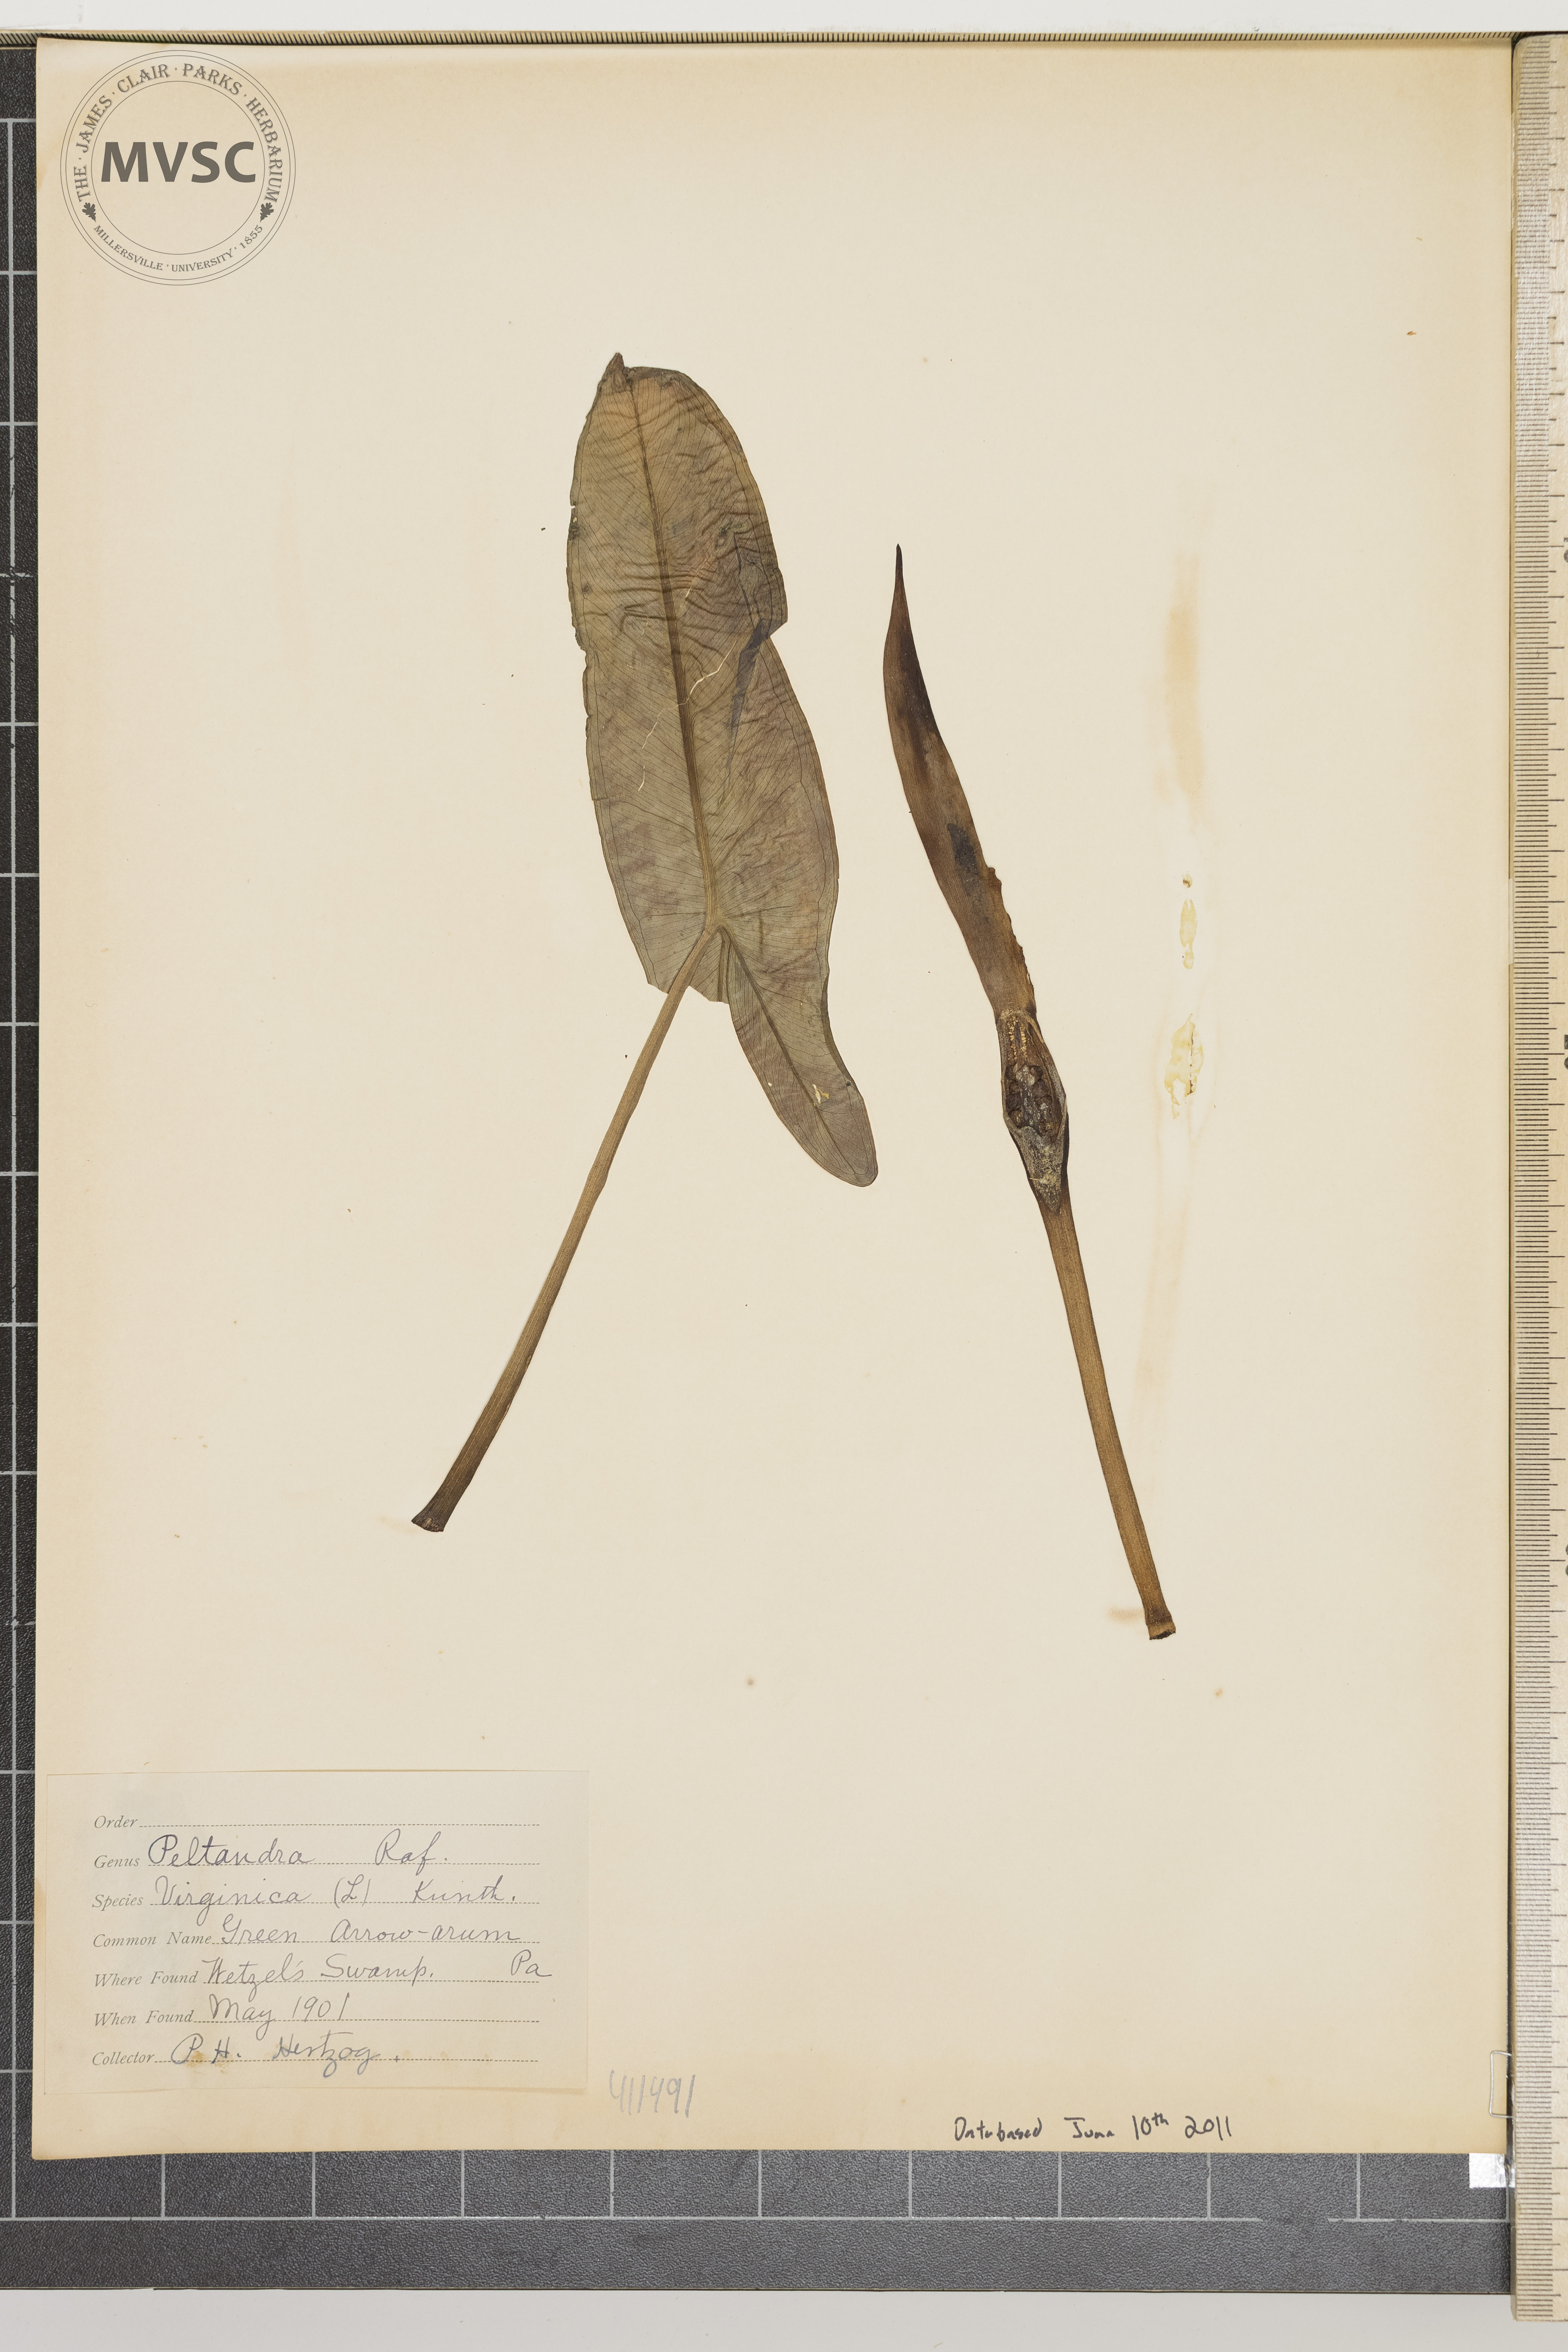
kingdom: Plantae
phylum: Tracheophyta
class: Liliopsida
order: Alismatales
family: Araceae
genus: Peltandra
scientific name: Peltandra virginica
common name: Green arrow arum
